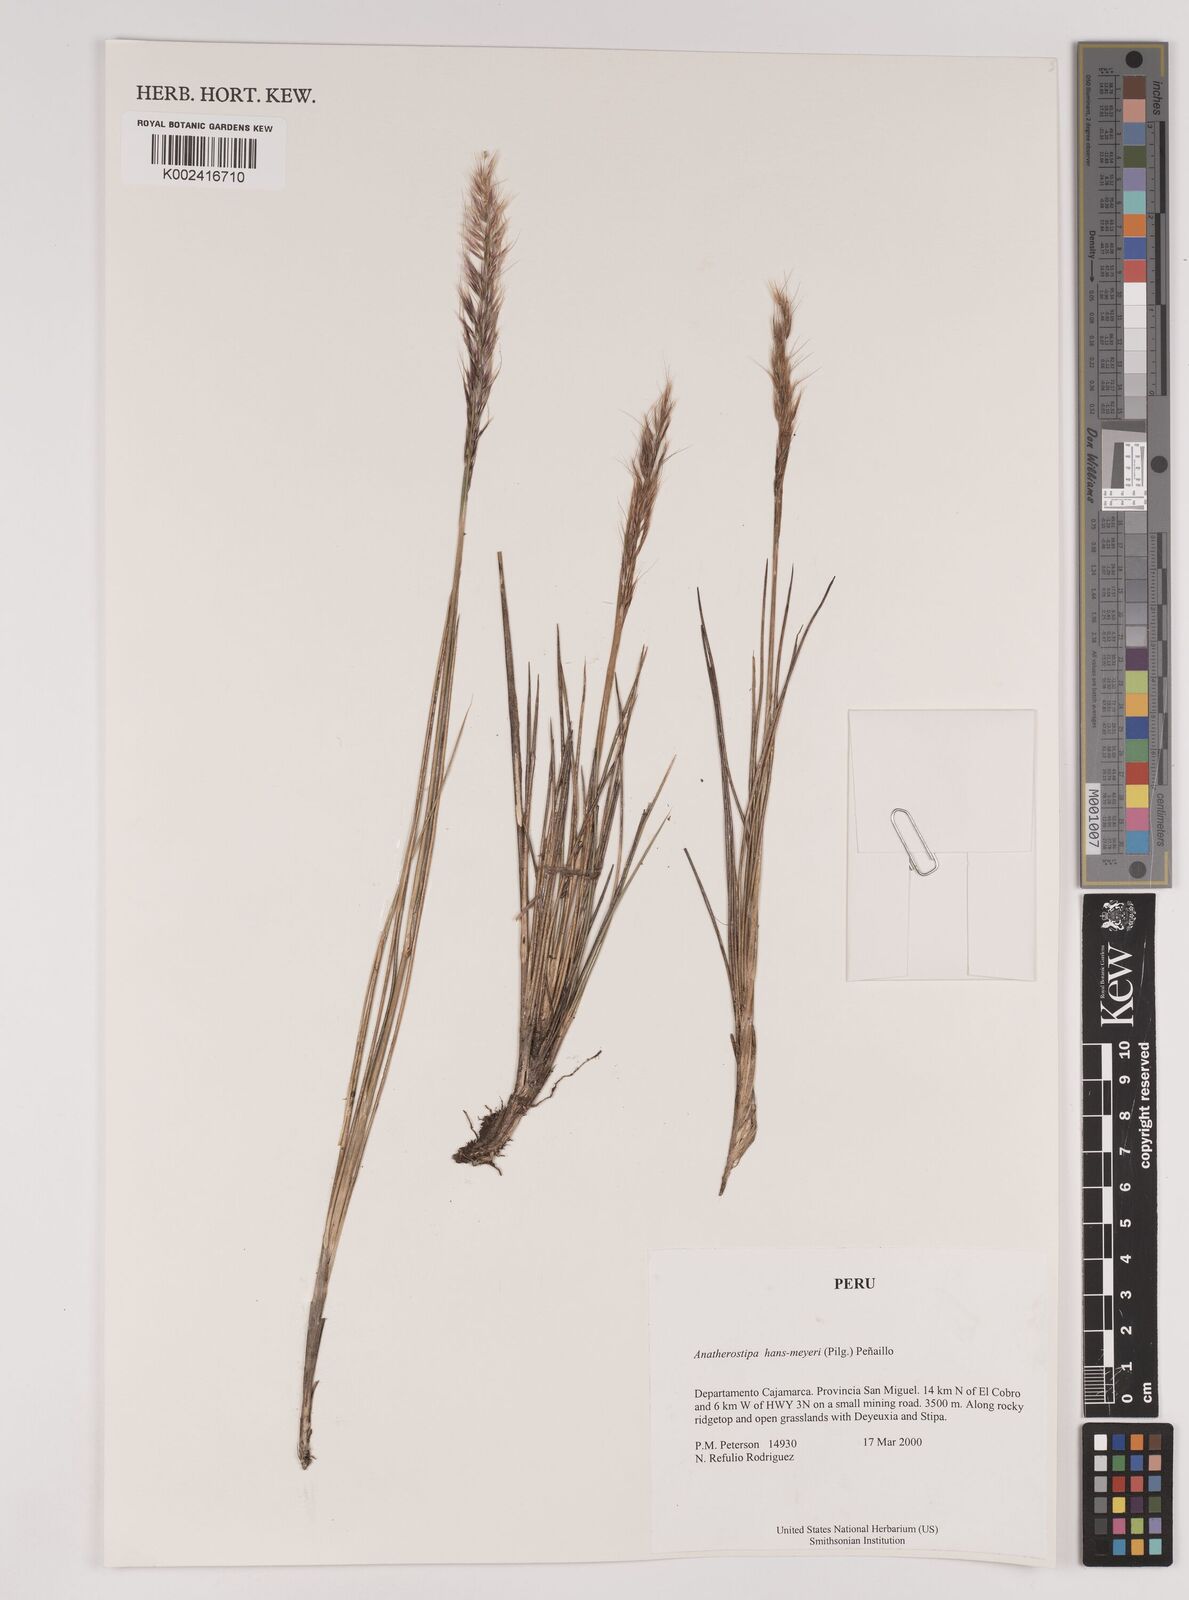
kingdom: Plantae
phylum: Tracheophyta
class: Liliopsida
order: Poales
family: Poaceae
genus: Stipa
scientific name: Stipa hans-meyeri
